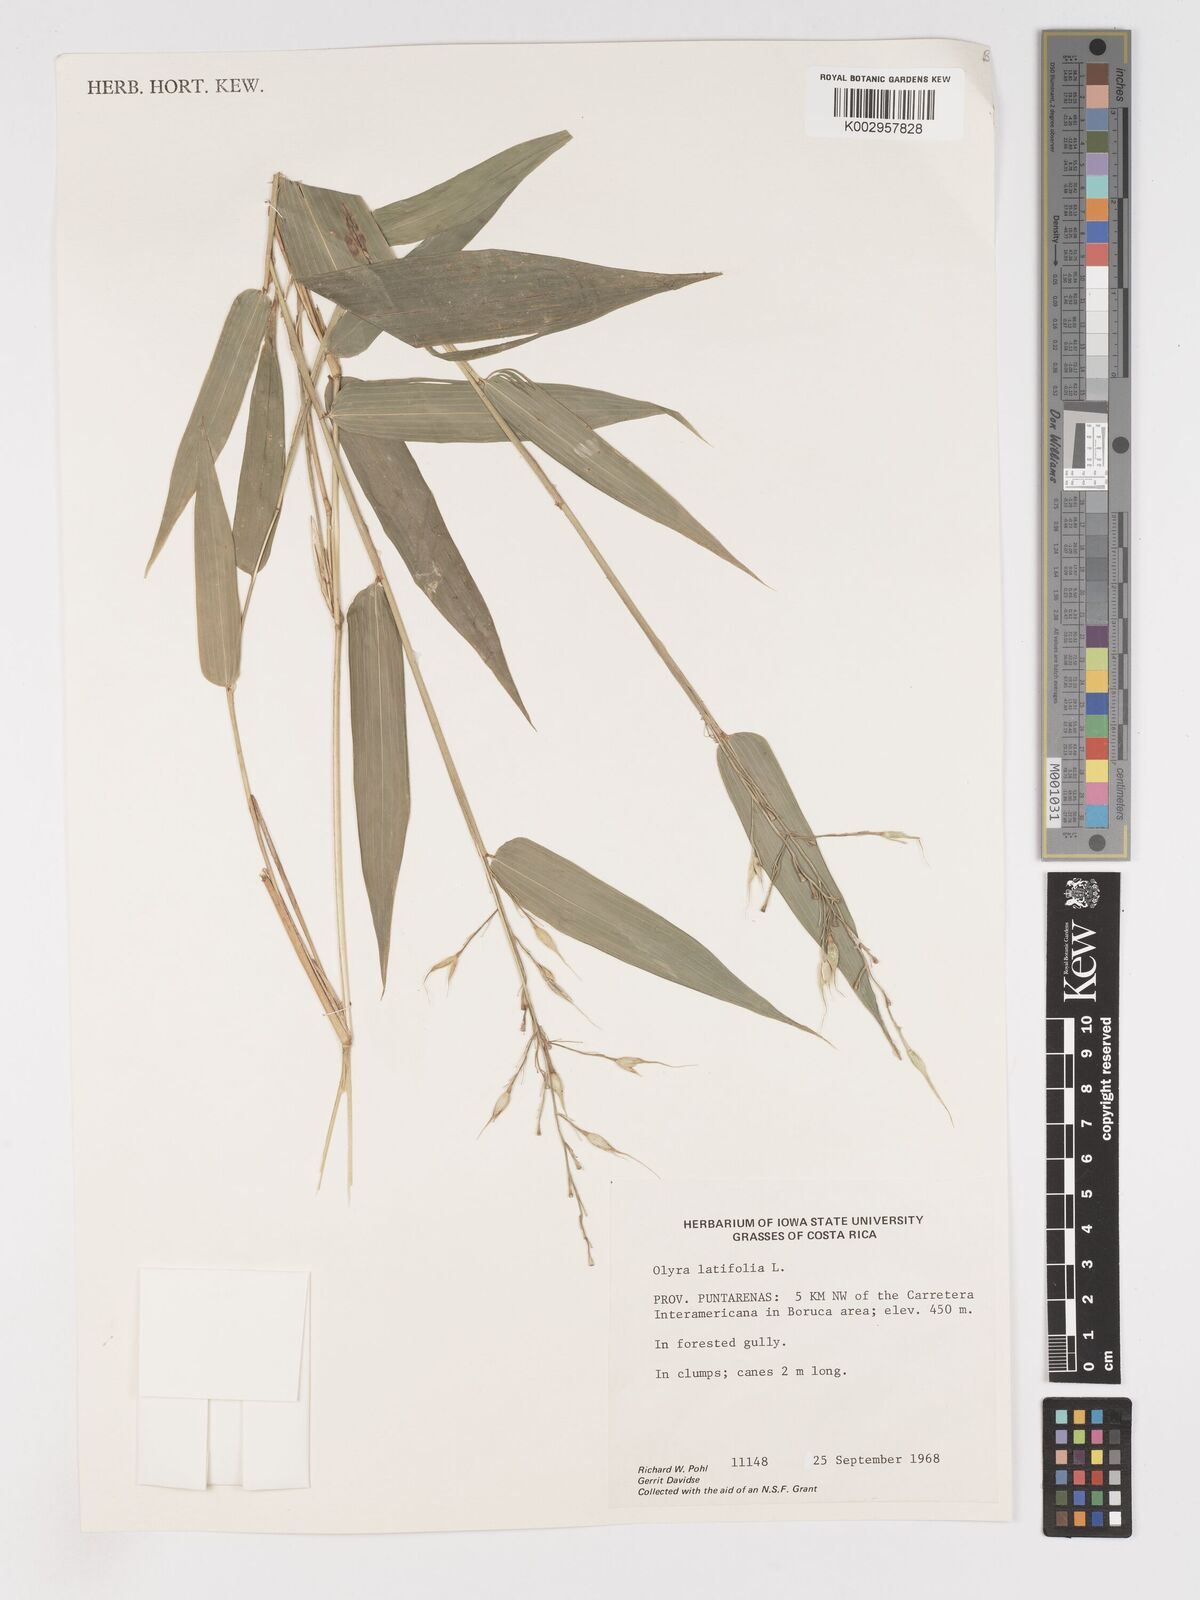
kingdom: Plantae
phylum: Tracheophyta
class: Liliopsida
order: Poales
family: Poaceae
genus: Olyra
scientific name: Olyra latifolia
